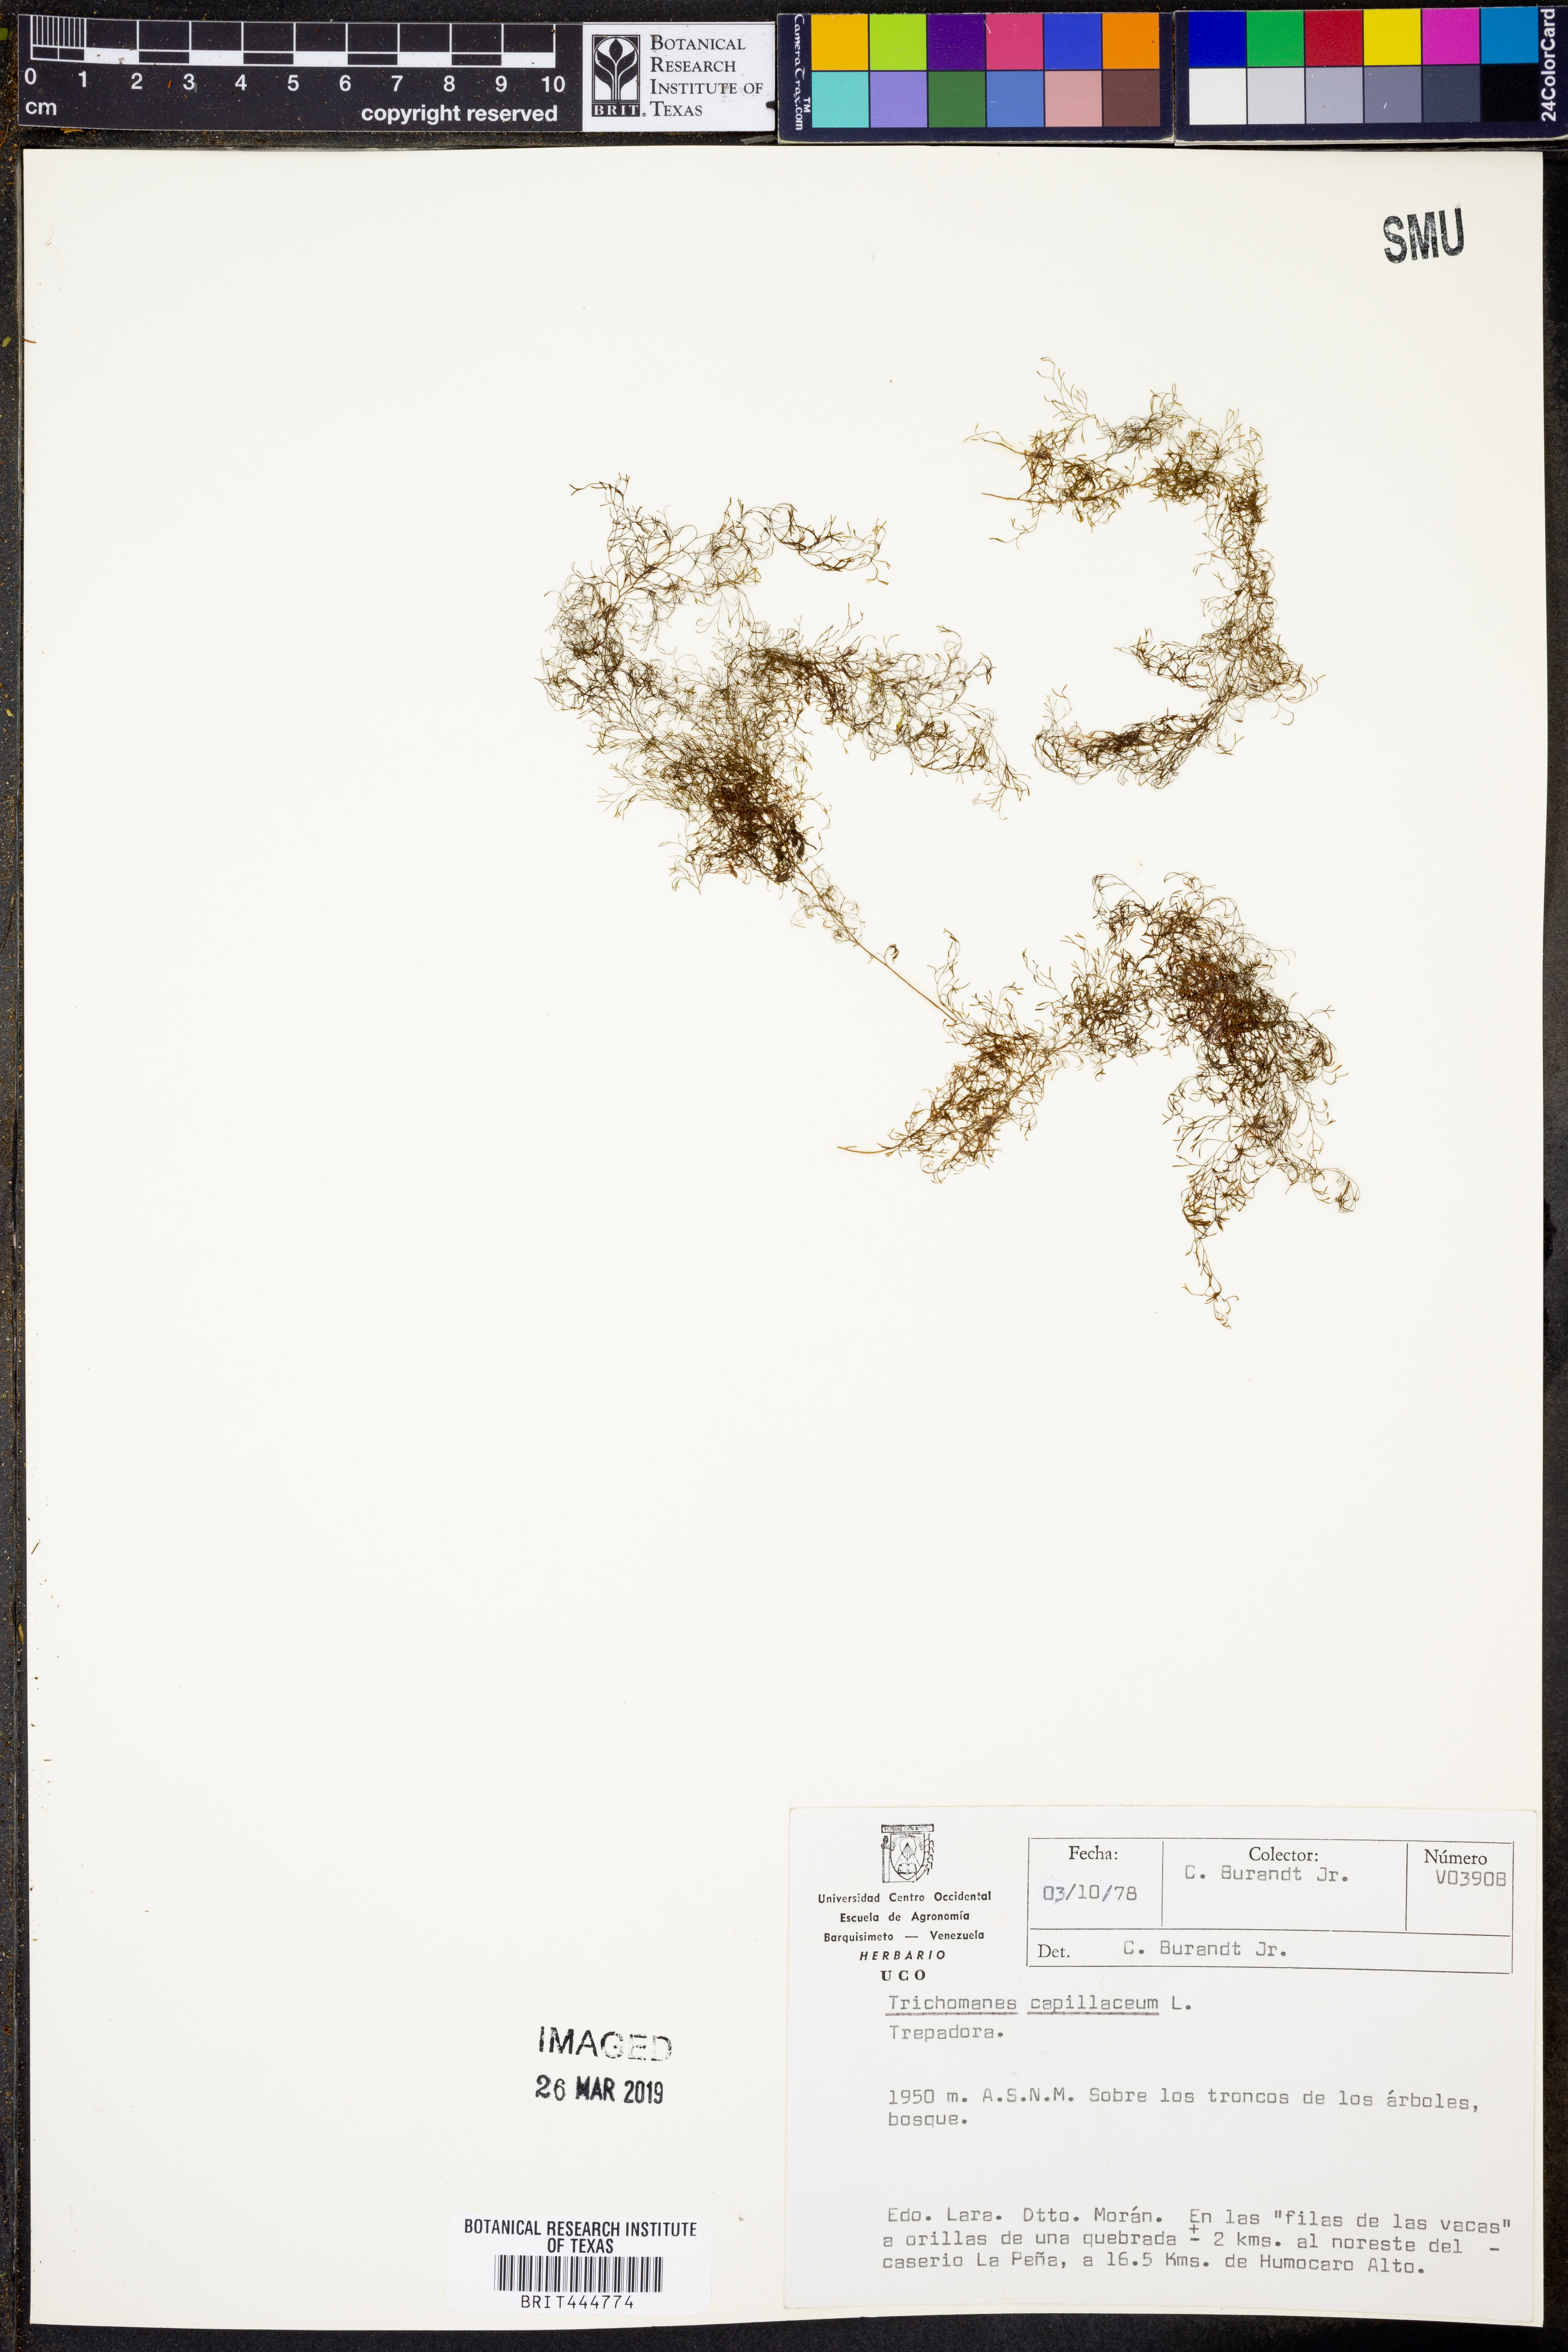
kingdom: Plantae
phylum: Tracheophyta
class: Polypodiopsida
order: Hymenophyllales
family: Hymenophyllaceae
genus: Polyphlebium
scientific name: Polyphlebium capillaceum
